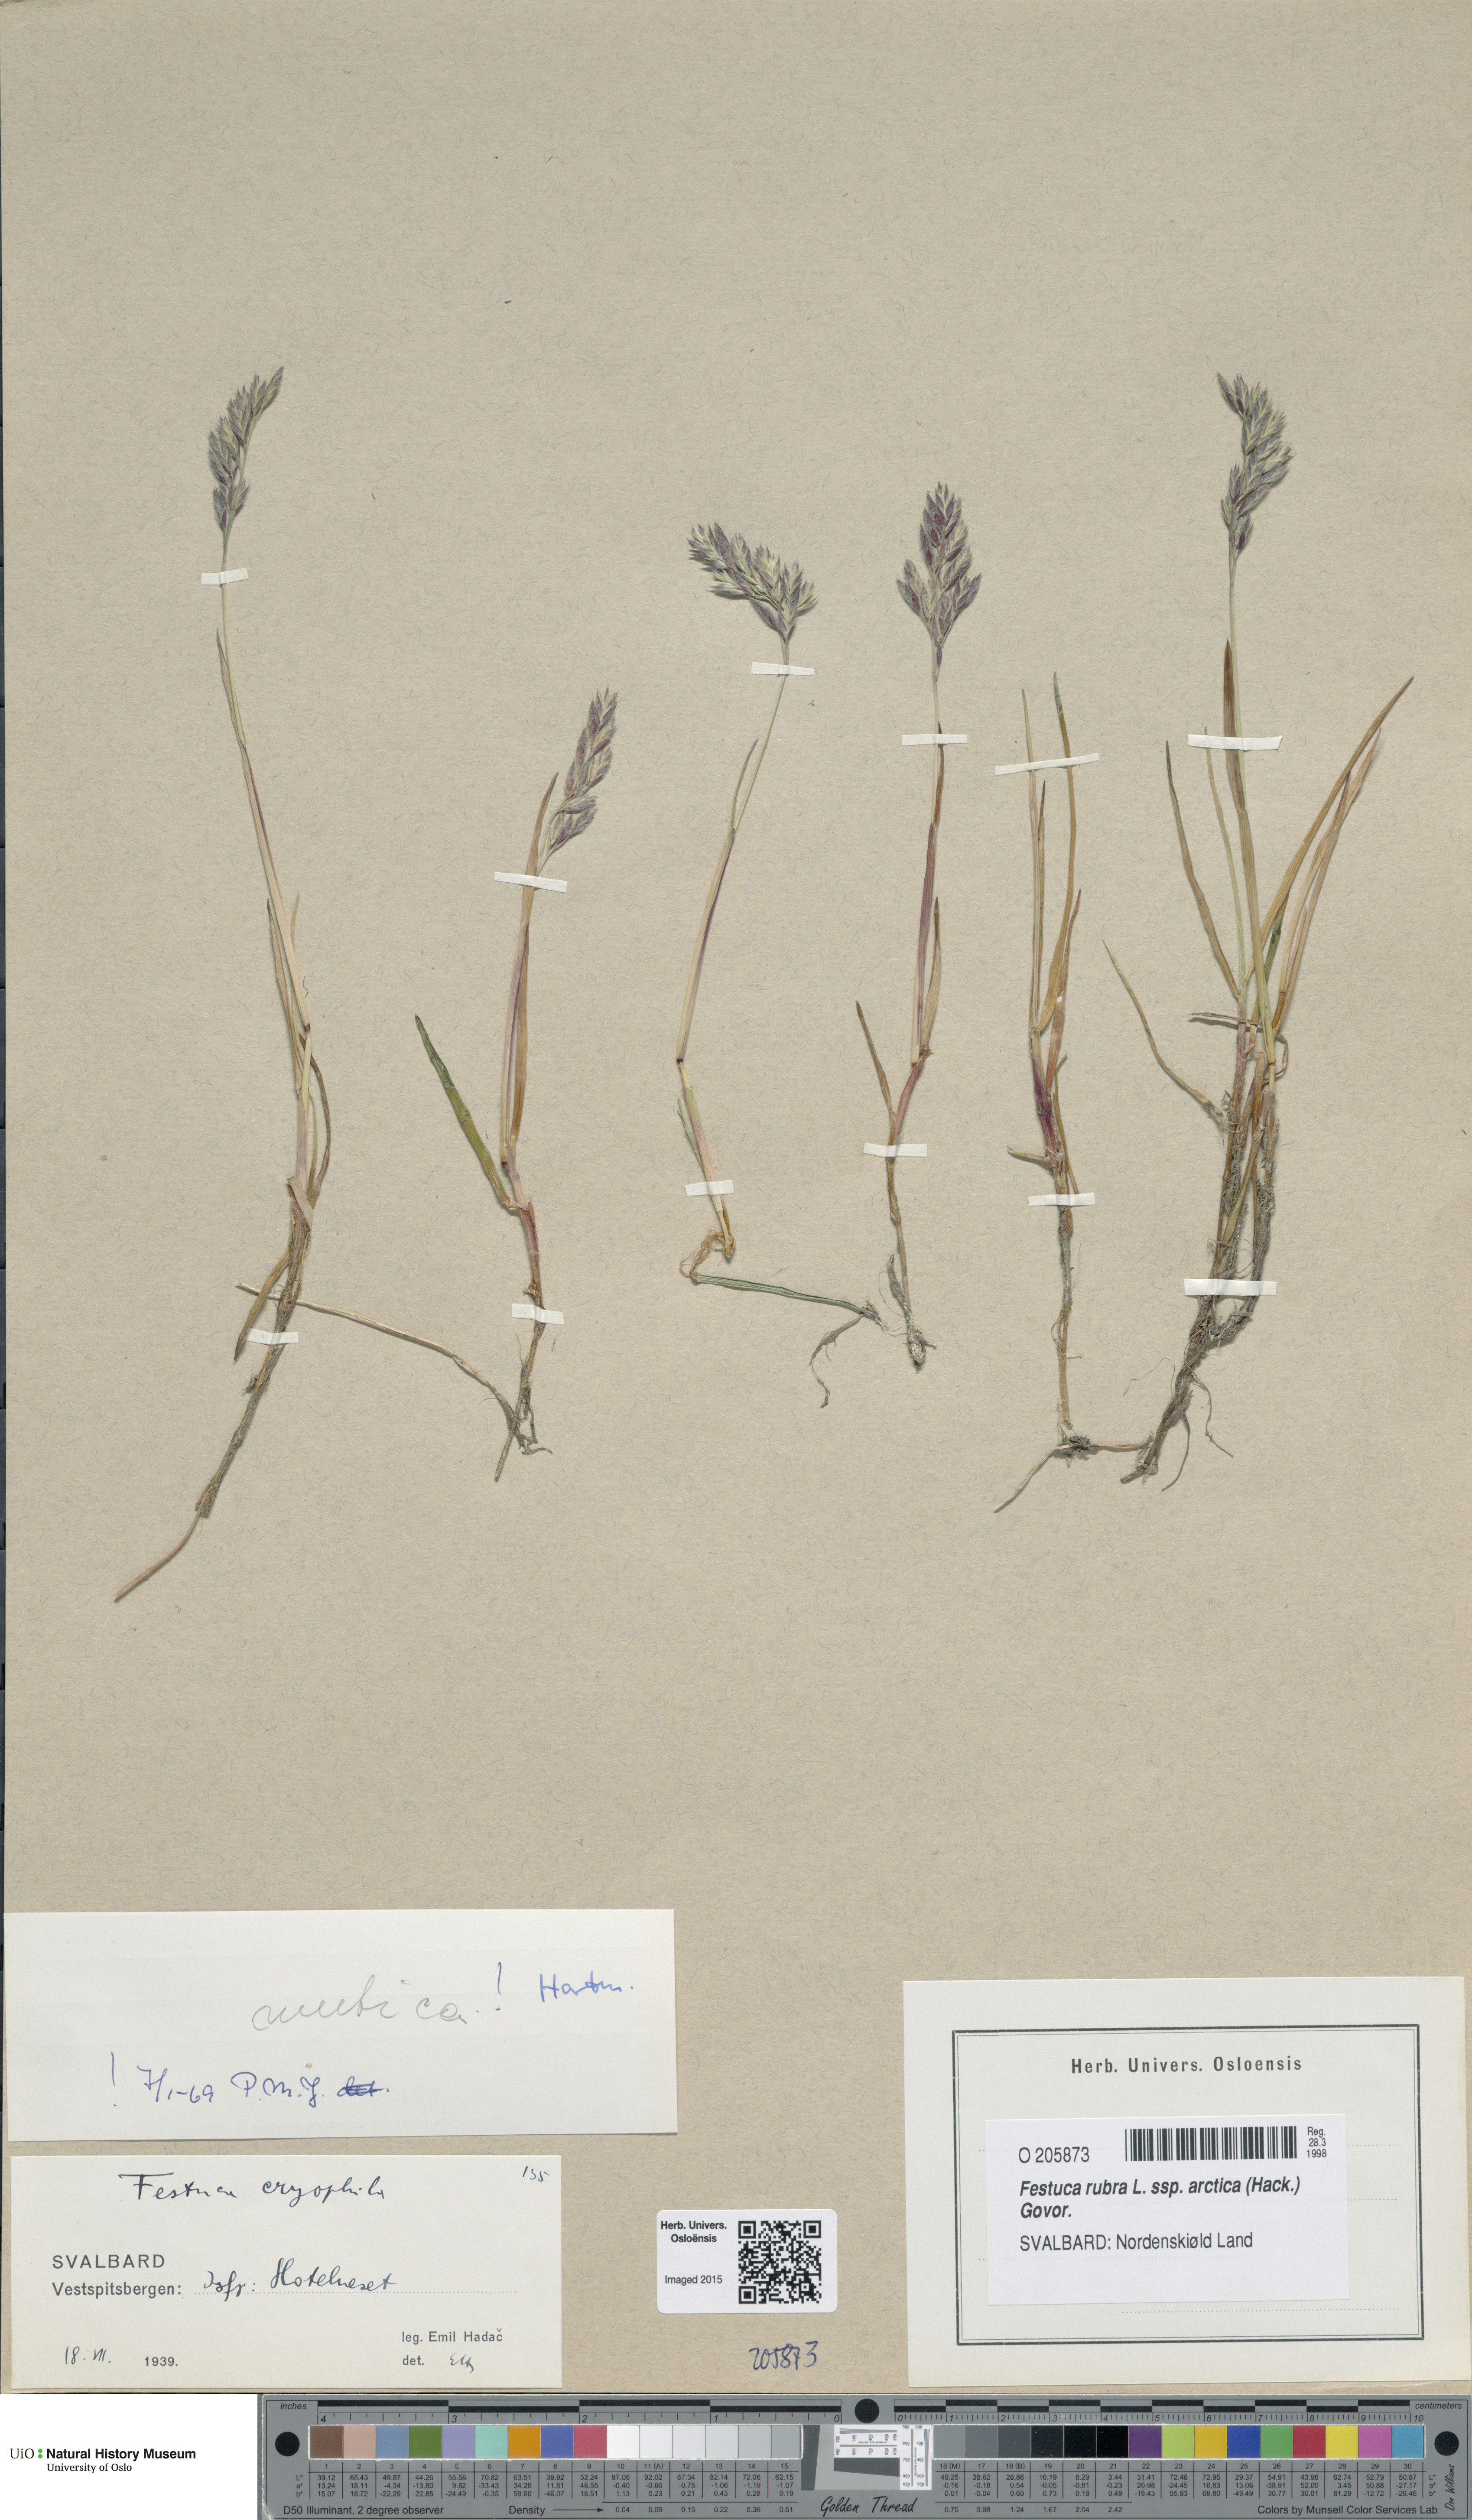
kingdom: Plantae
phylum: Tracheophyta
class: Liliopsida
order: Poales
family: Poaceae
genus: Festuca
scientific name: Festuca richardsonii
